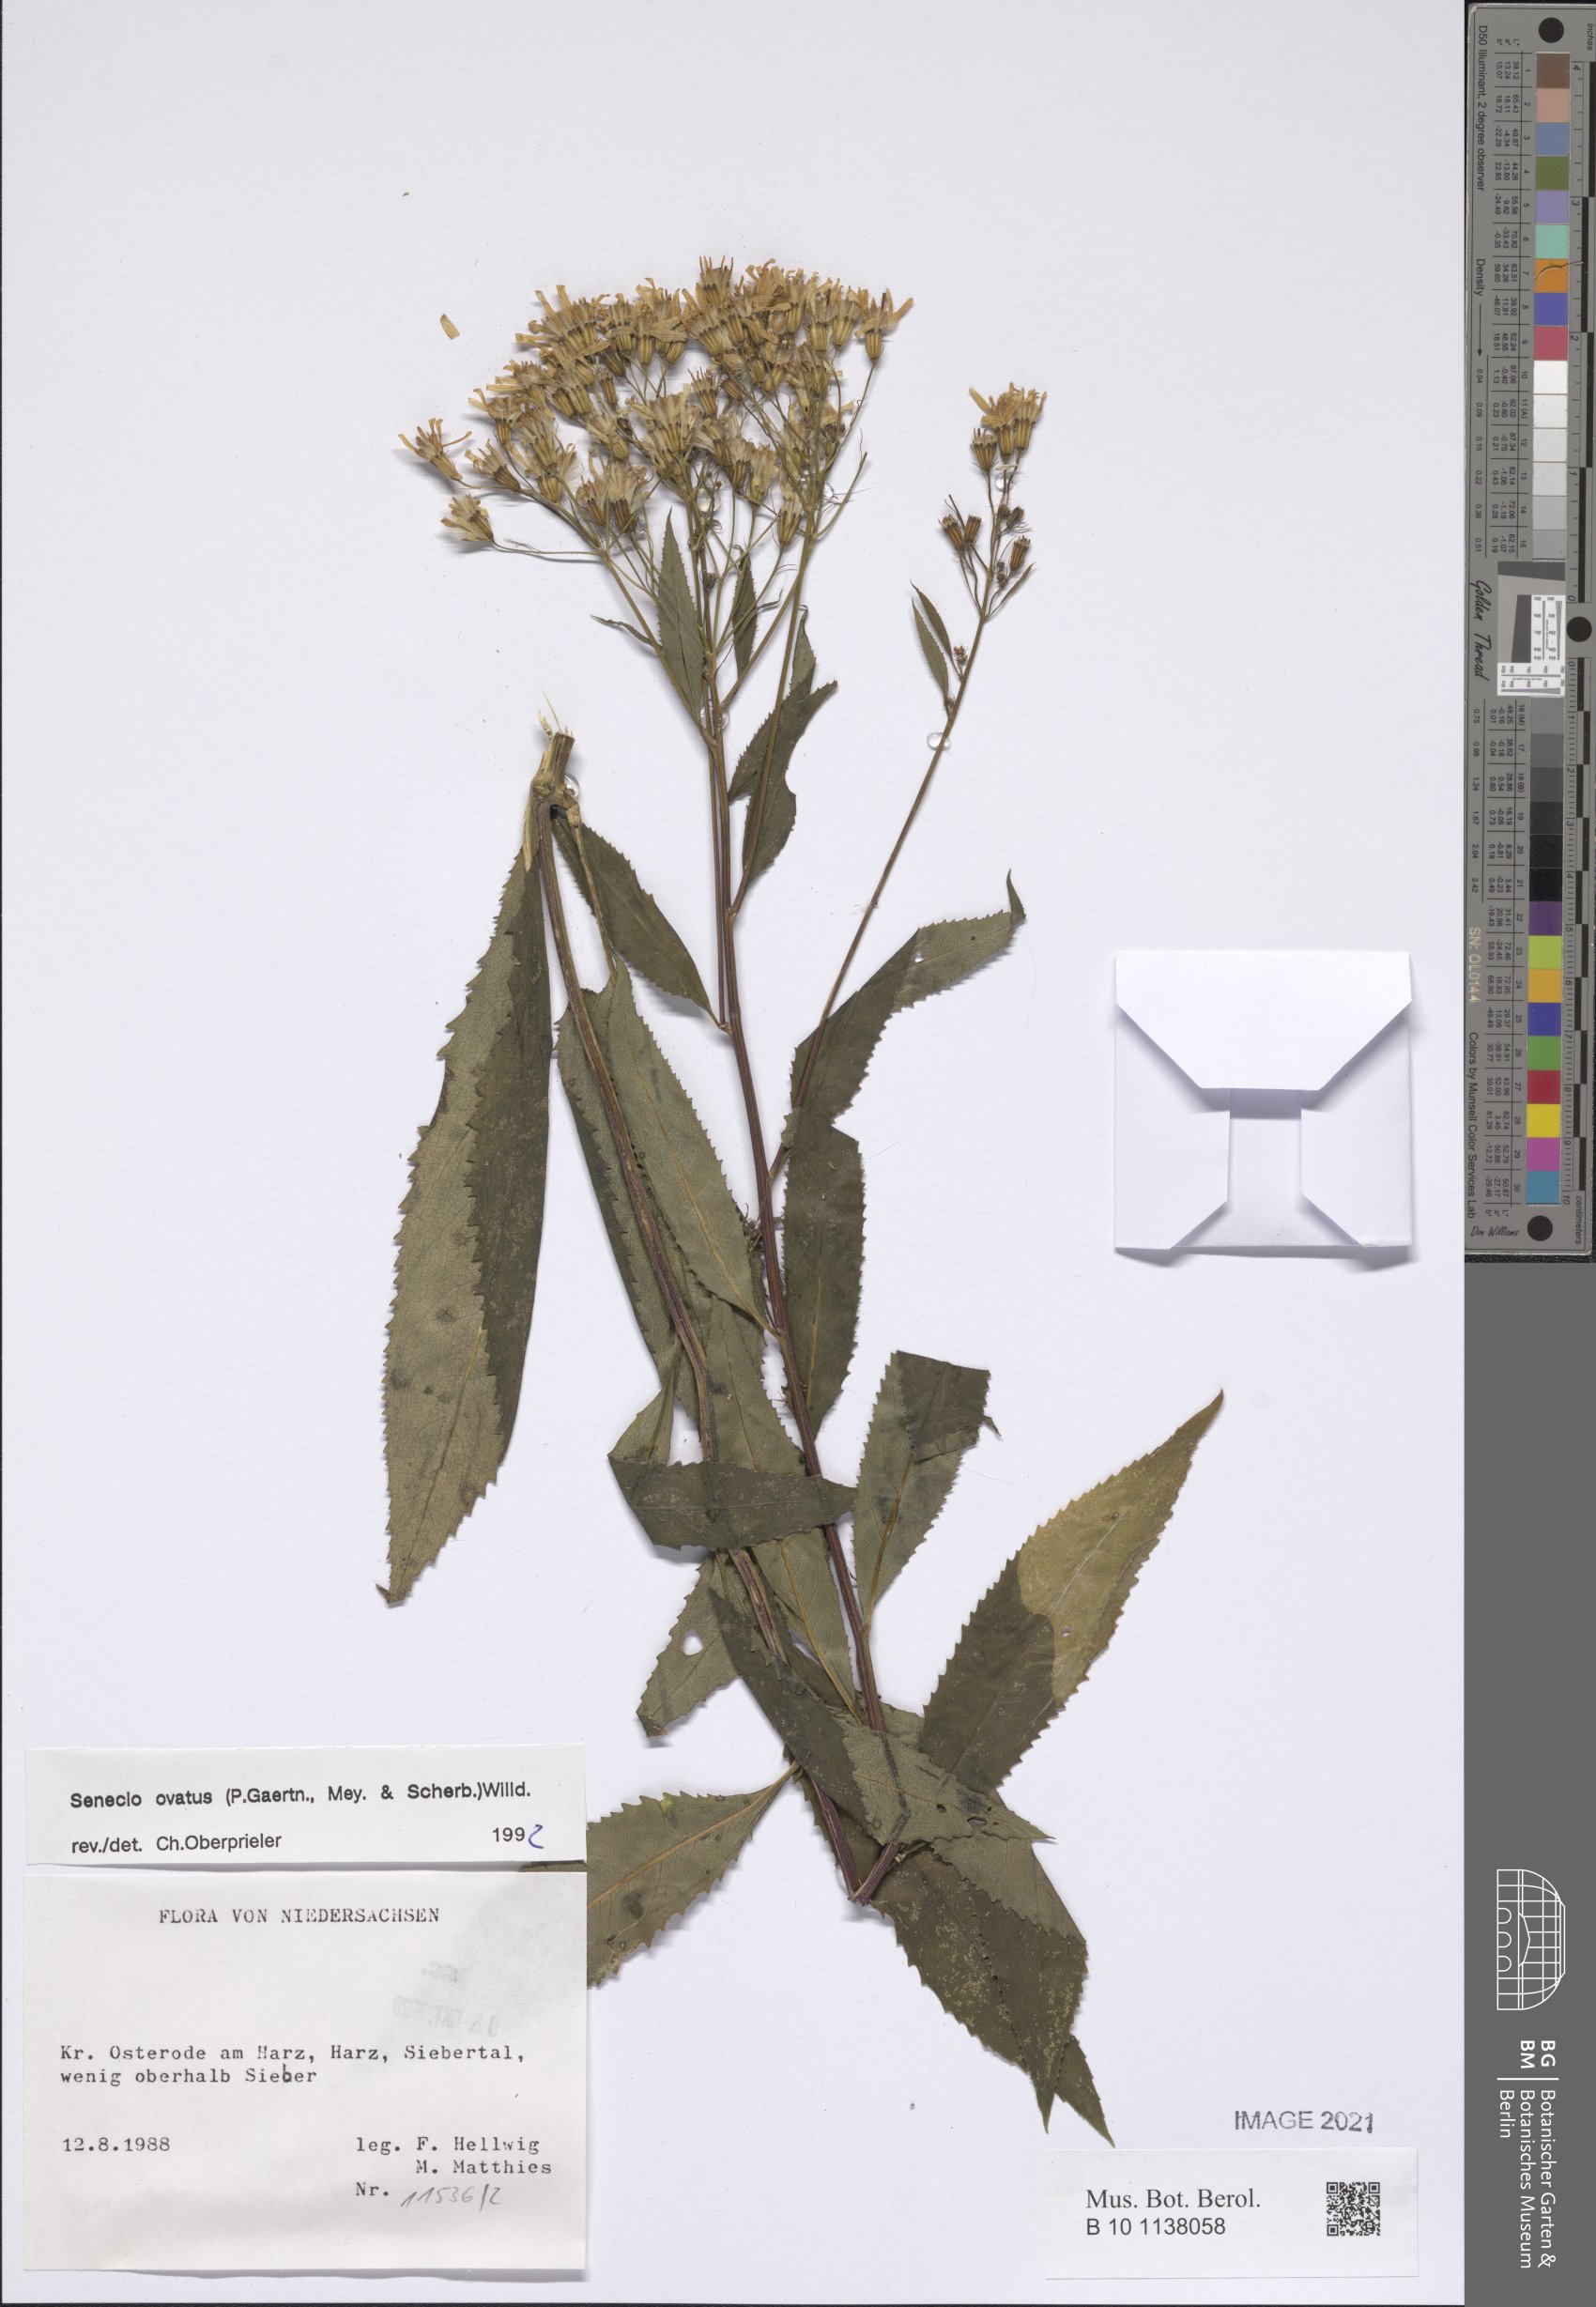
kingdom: Plantae
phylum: Tracheophyta
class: Magnoliopsida
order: Asterales
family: Asteraceae
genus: Senecio
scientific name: Senecio ovatus
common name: Wood ragwort
